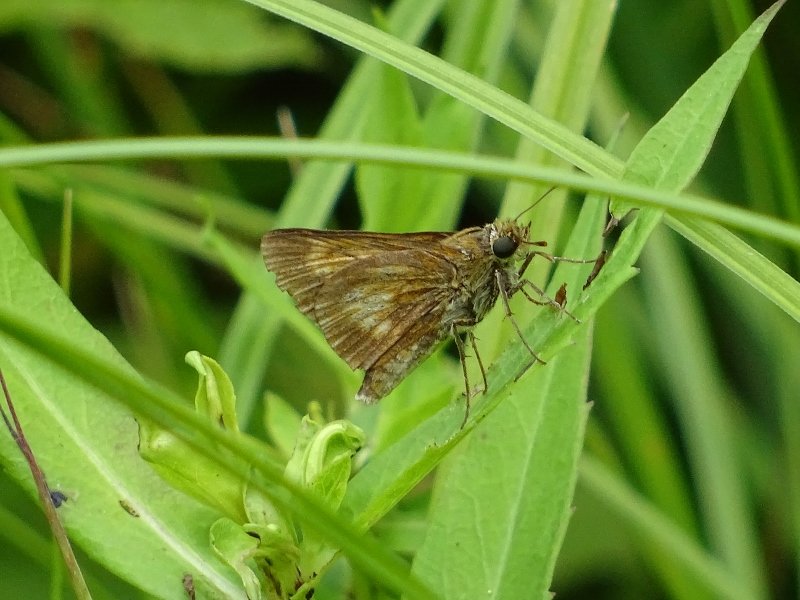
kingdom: Animalia
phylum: Arthropoda
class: Insecta
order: Lepidoptera
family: Hesperiidae
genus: Euphyes
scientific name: Euphyes conspicua
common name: Black Dash
